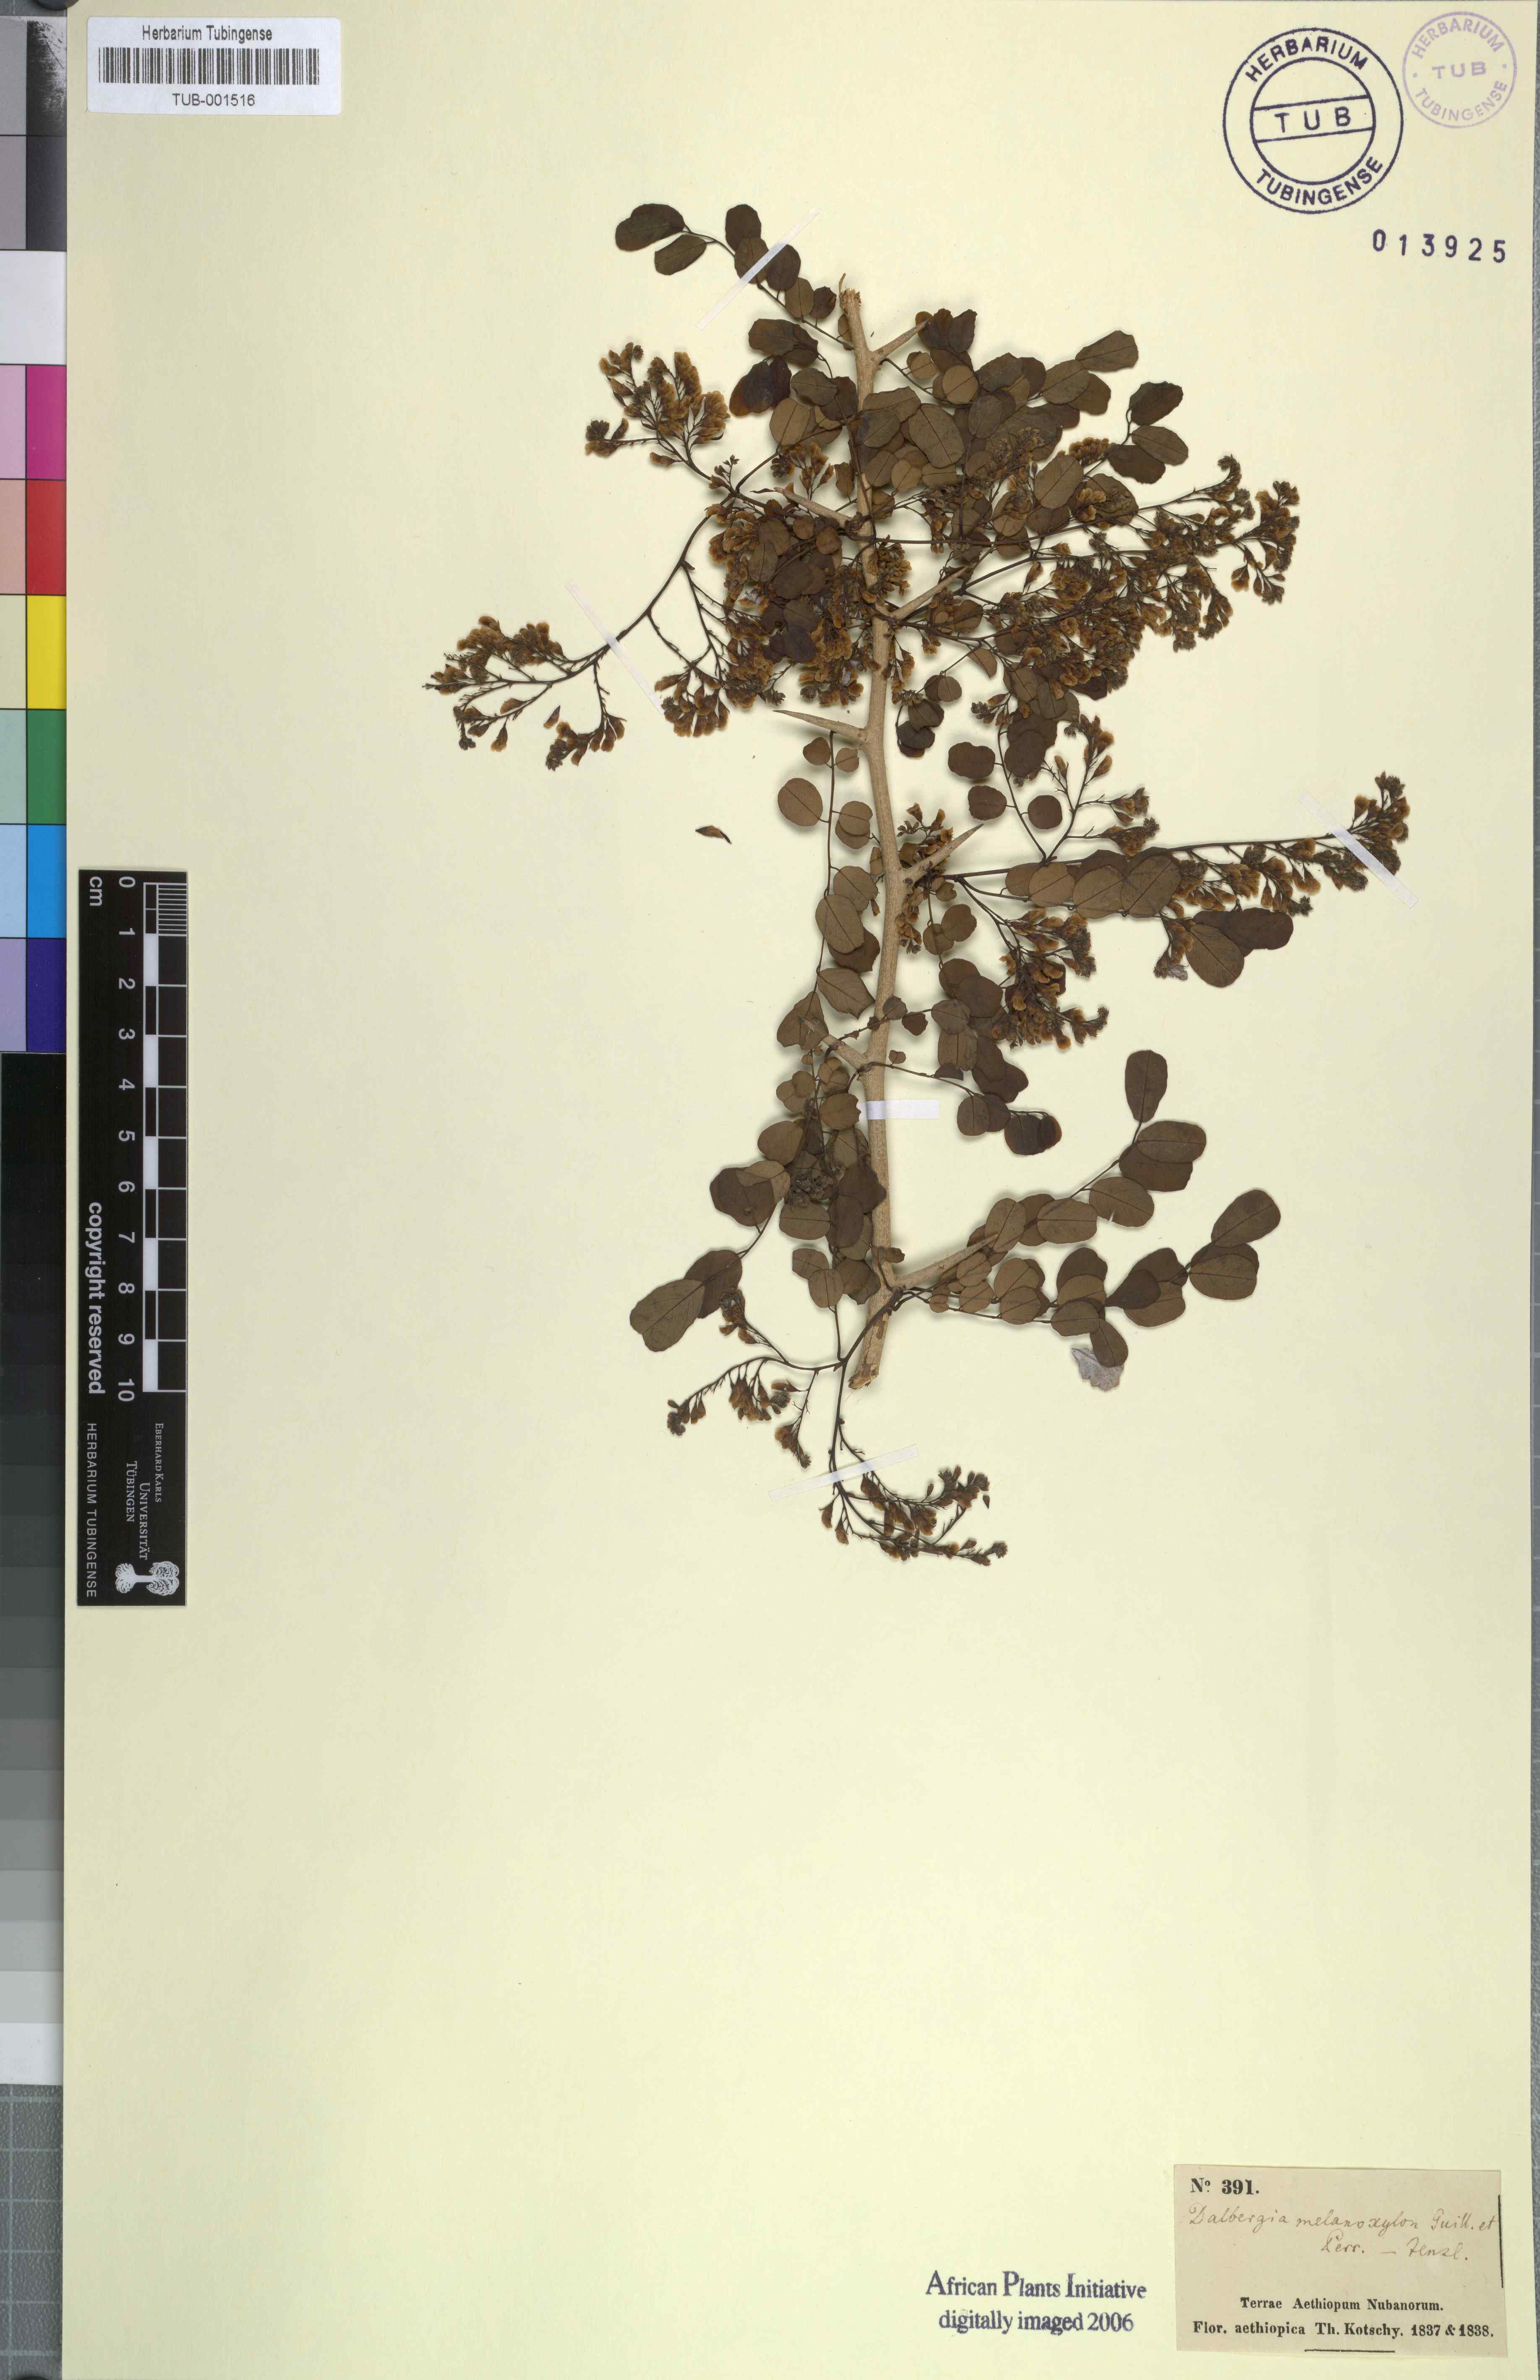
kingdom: Plantae
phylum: Tracheophyta
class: Magnoliopsida
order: Fabales
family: Fabaceae
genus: Dalbergia
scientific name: Dalbergia melanoxylon
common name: African blackwood
